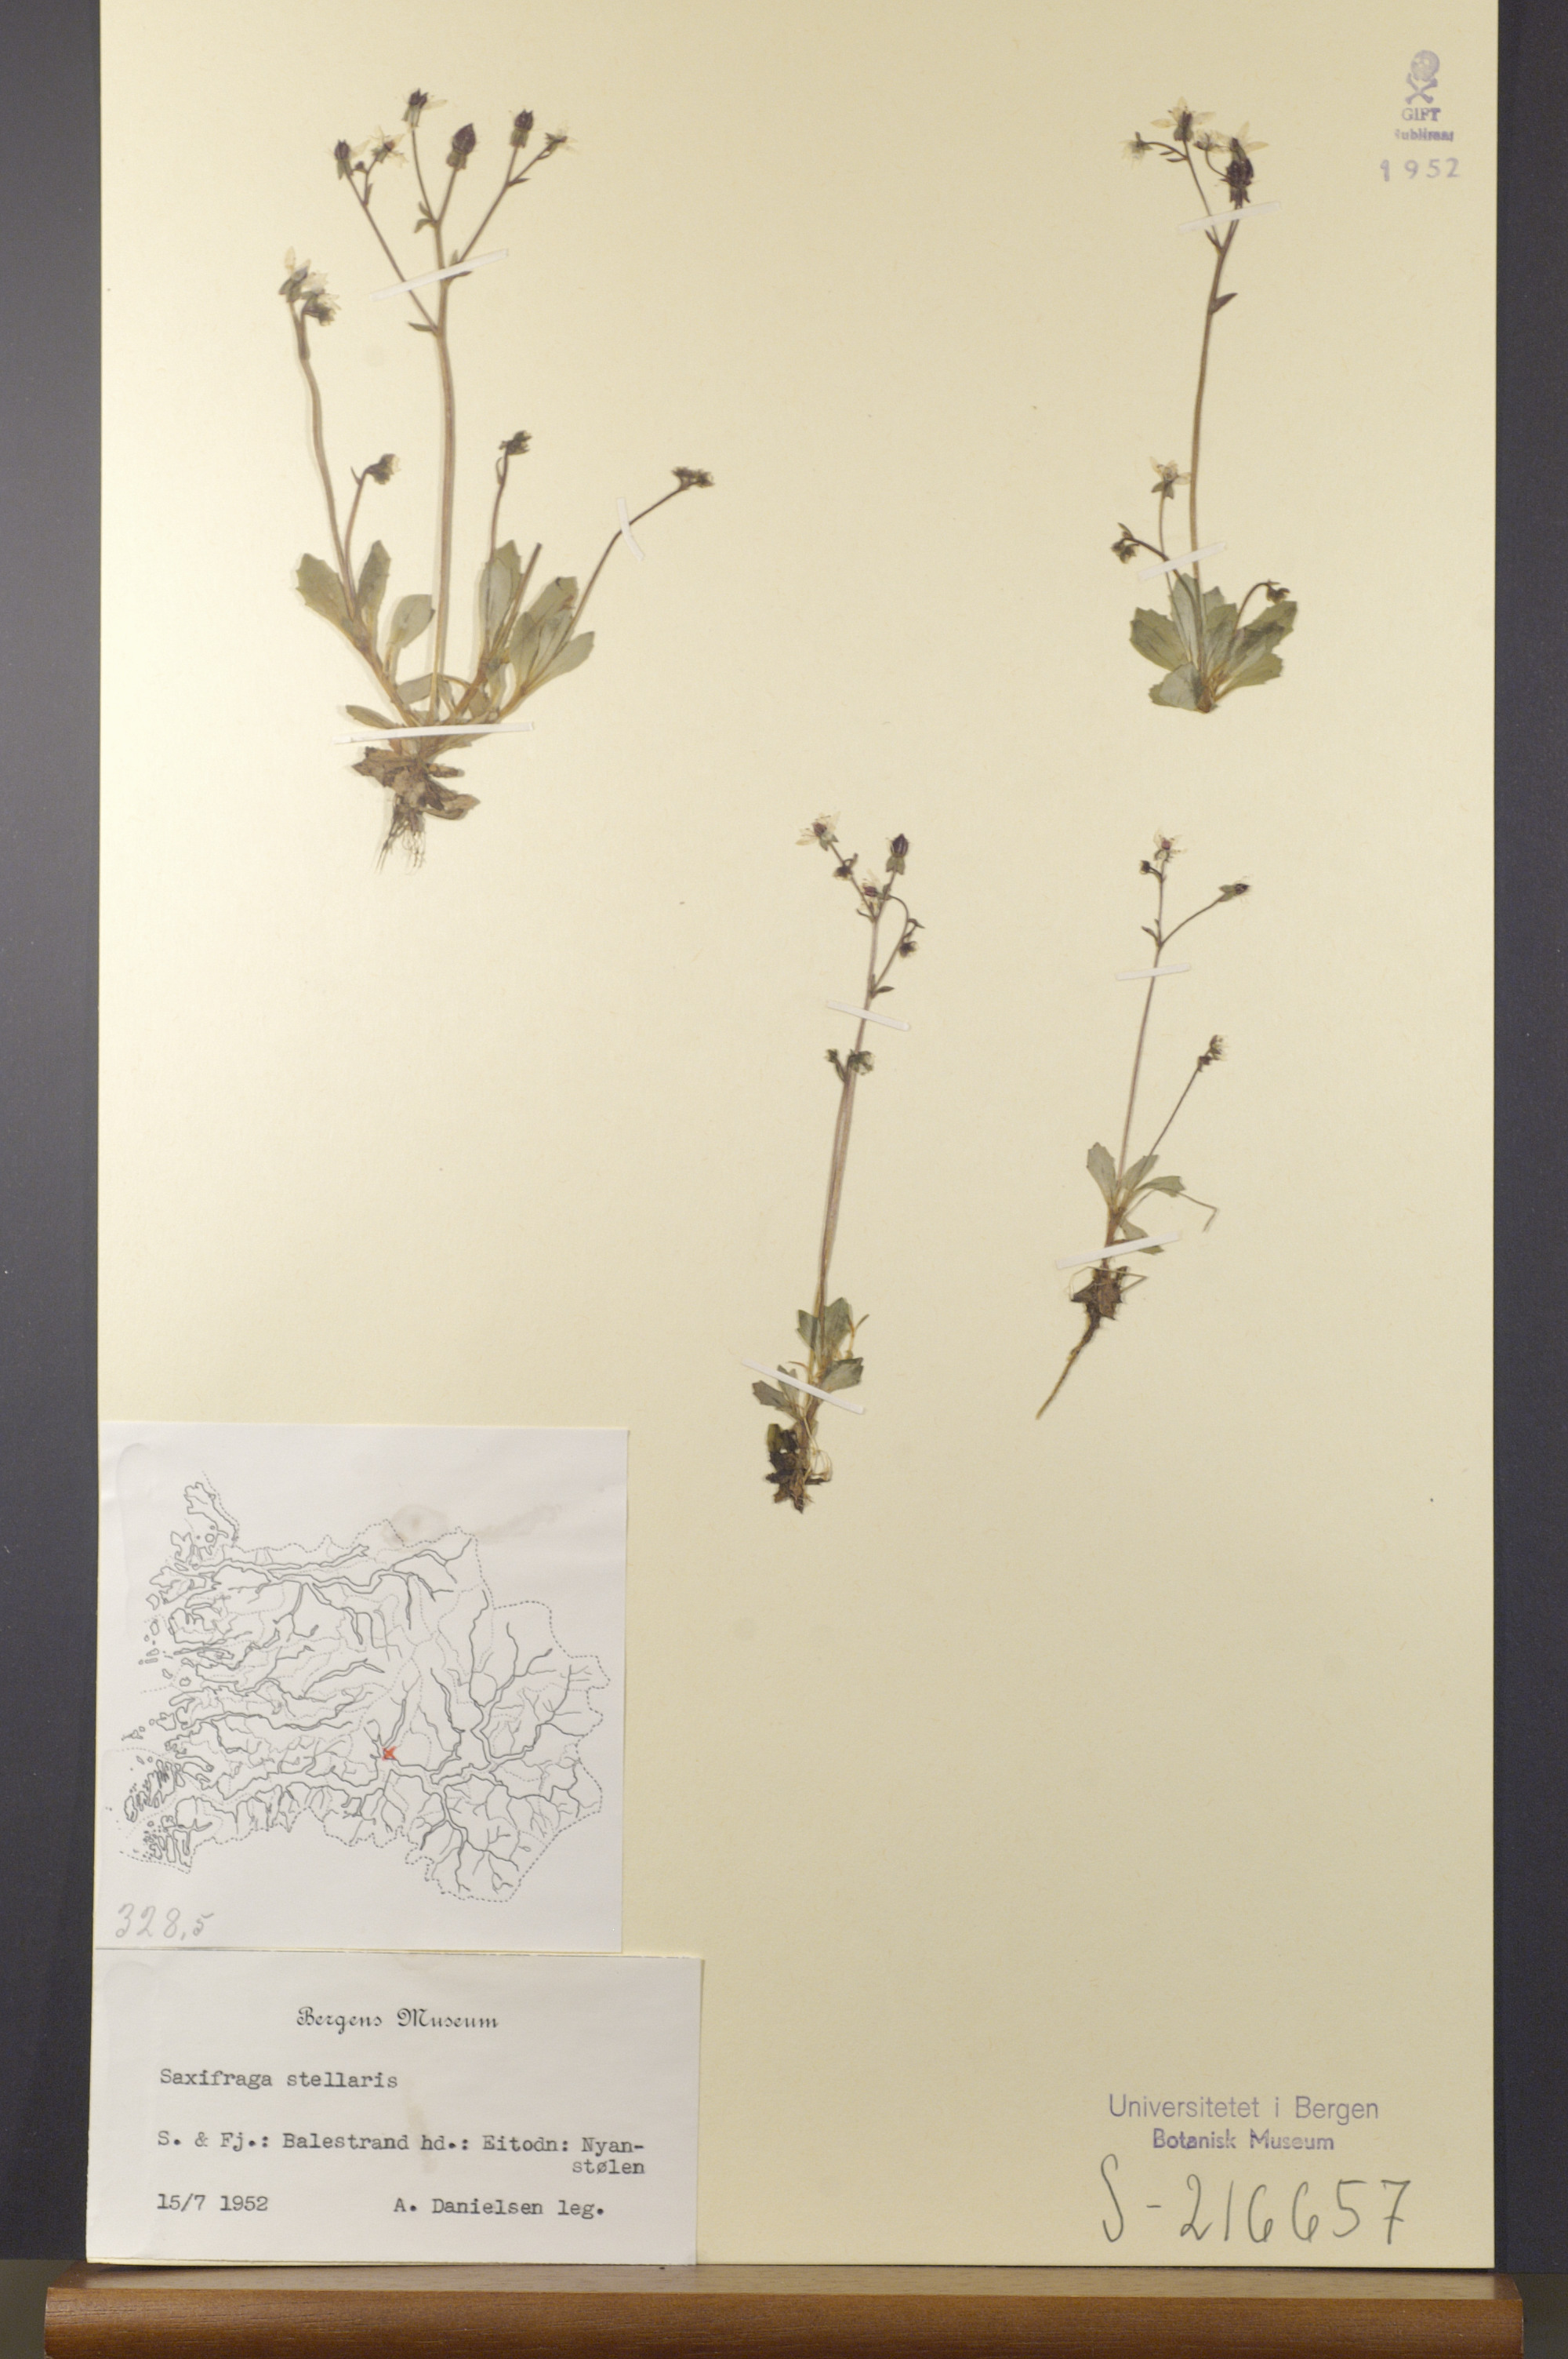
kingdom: Plantae
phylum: Tracheophyta
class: Magnoliopsida
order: Saxifragales
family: Saxifragaceae
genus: Micranthes
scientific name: Micranthes stellaris
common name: Starry saxifrage
